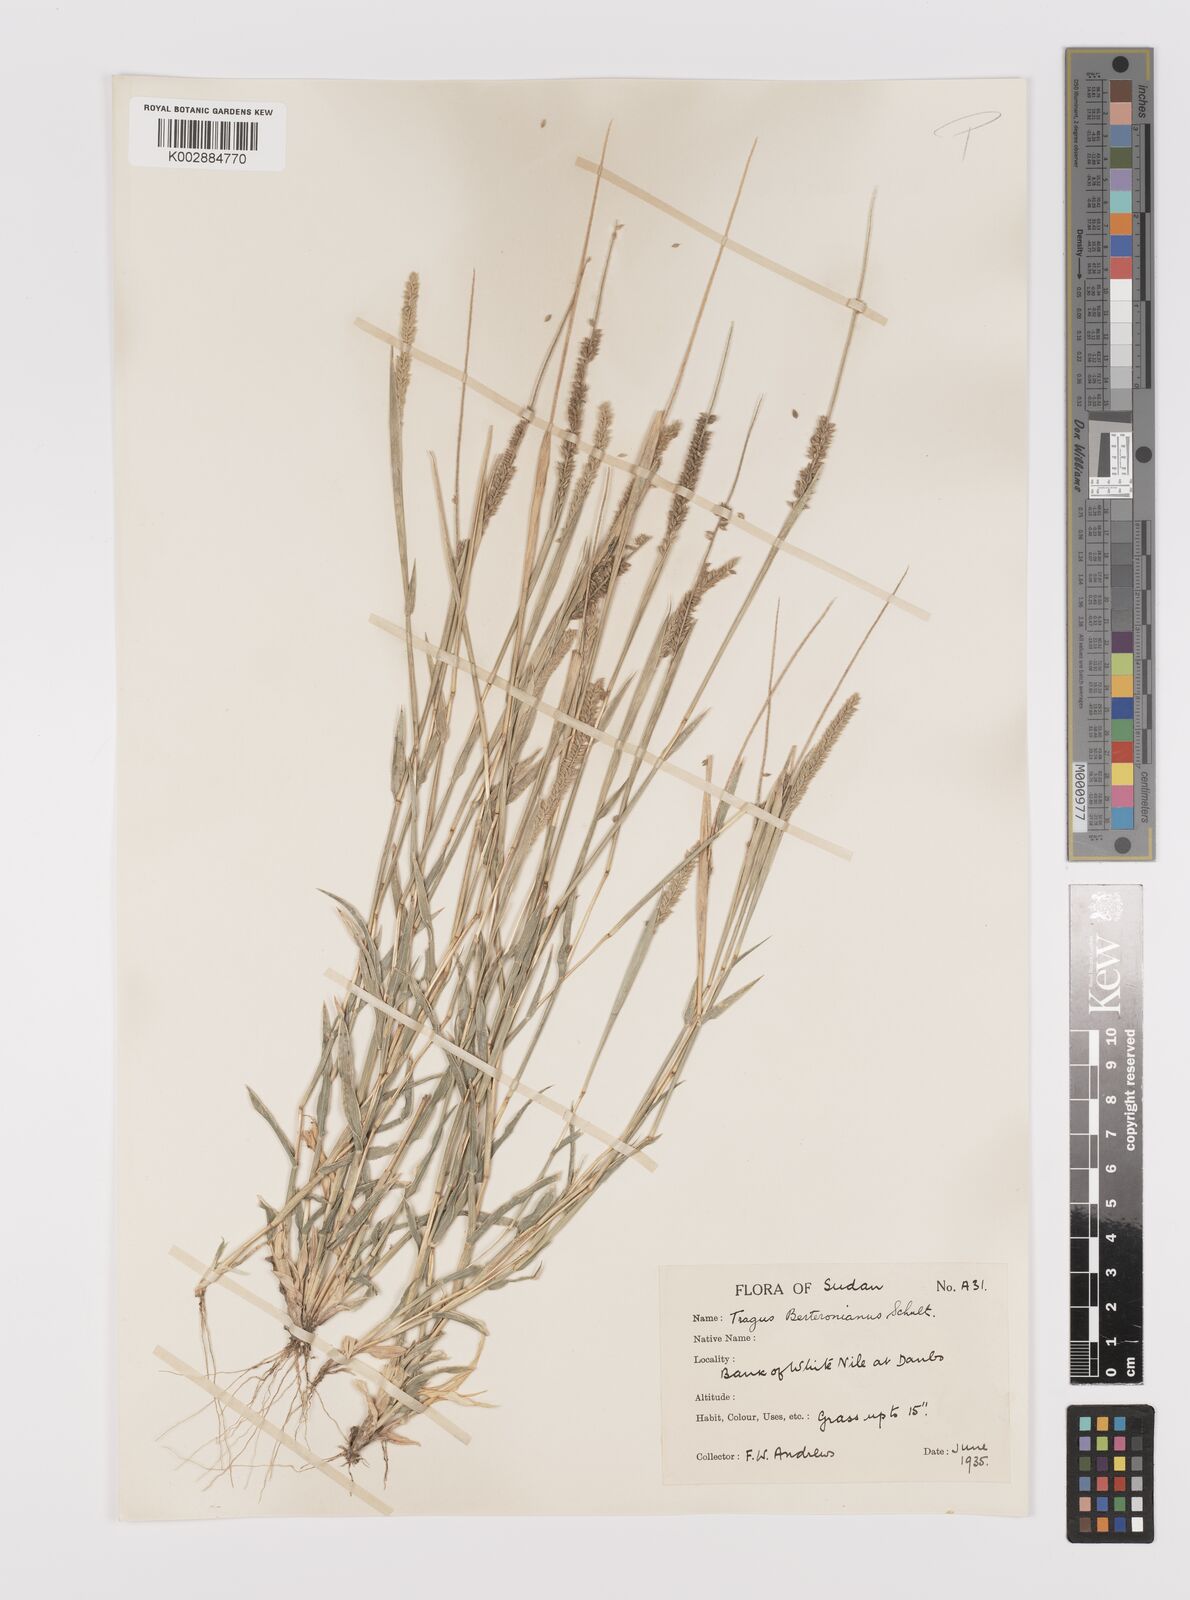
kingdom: Plantae
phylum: Tracheophyta
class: Liliopsida
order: Poales
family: Poaceae
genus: Tragus
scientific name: Tragus berteronianus
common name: African bur-grass
